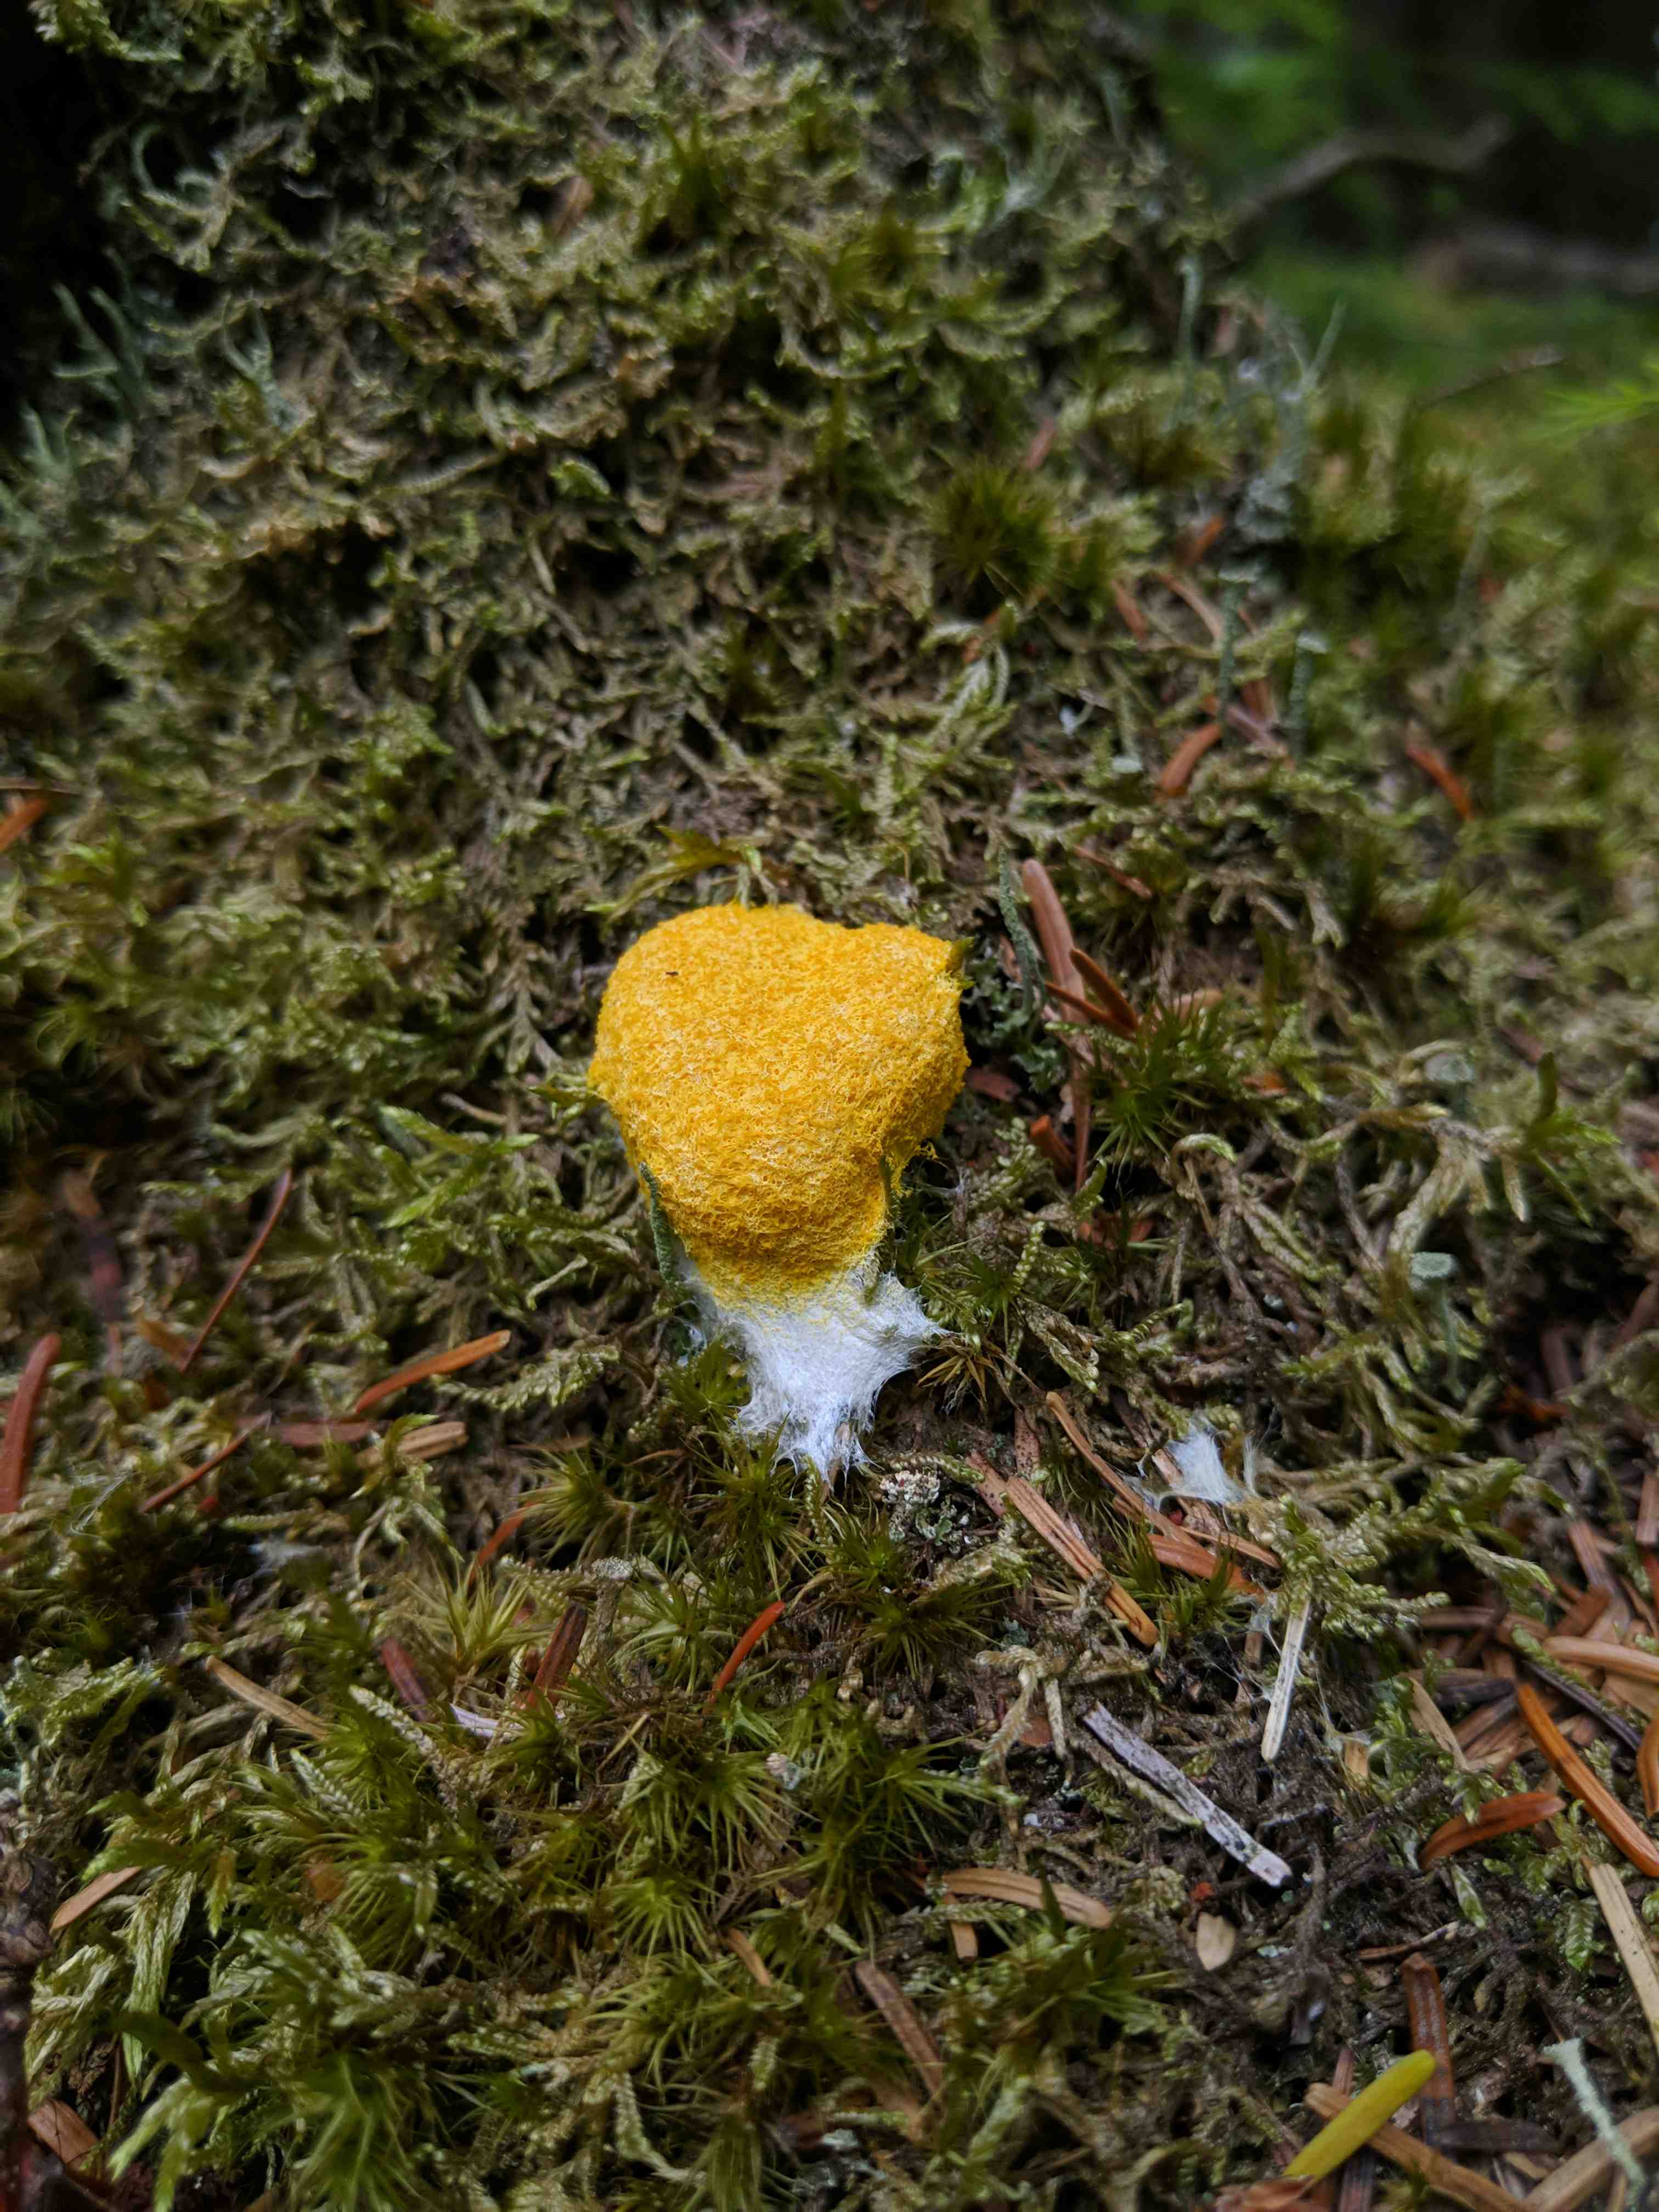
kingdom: Protozoa
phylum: Mycetozoa
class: Myxomycetes
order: Physarales
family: Physaraceae
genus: Fuligo
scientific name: Fuligo septica
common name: gul troldsmør
